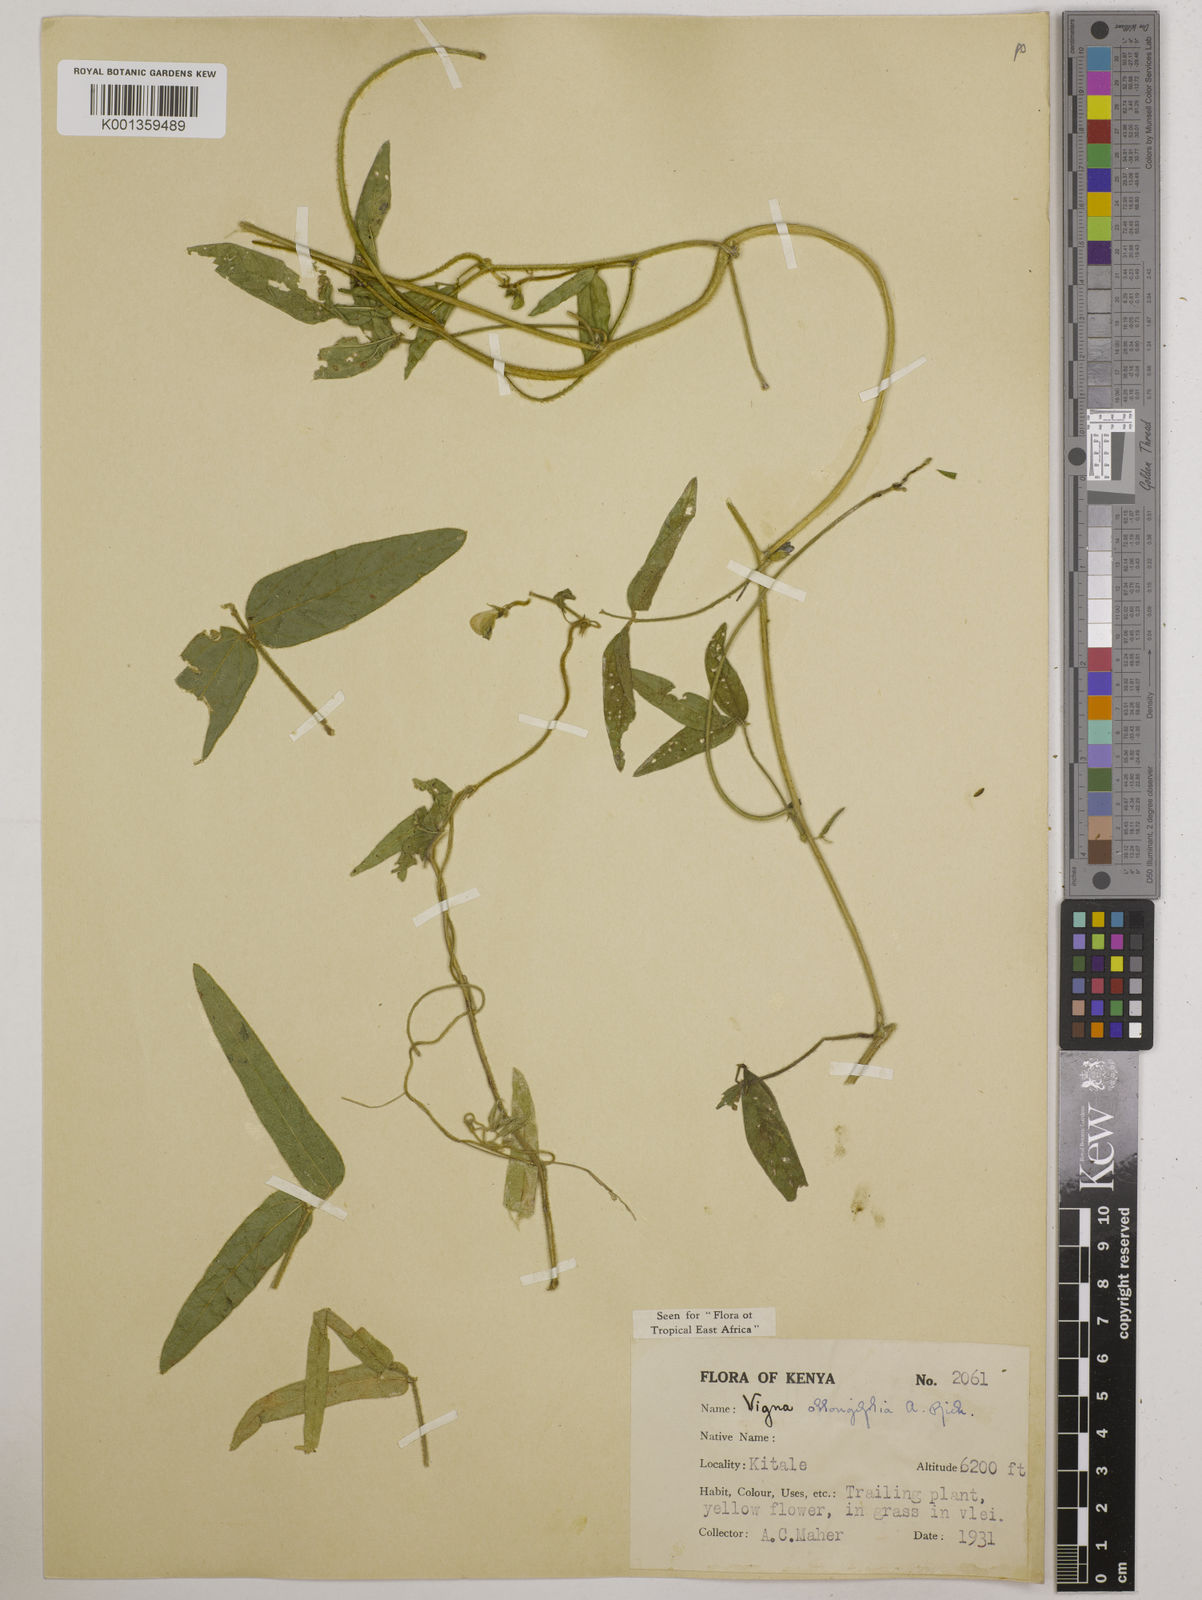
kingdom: Plantae
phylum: Tracheophyta
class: Magnoliopsida
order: Fabales
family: Fabaceae
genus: Vigna
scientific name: Vigna oblongifolia
